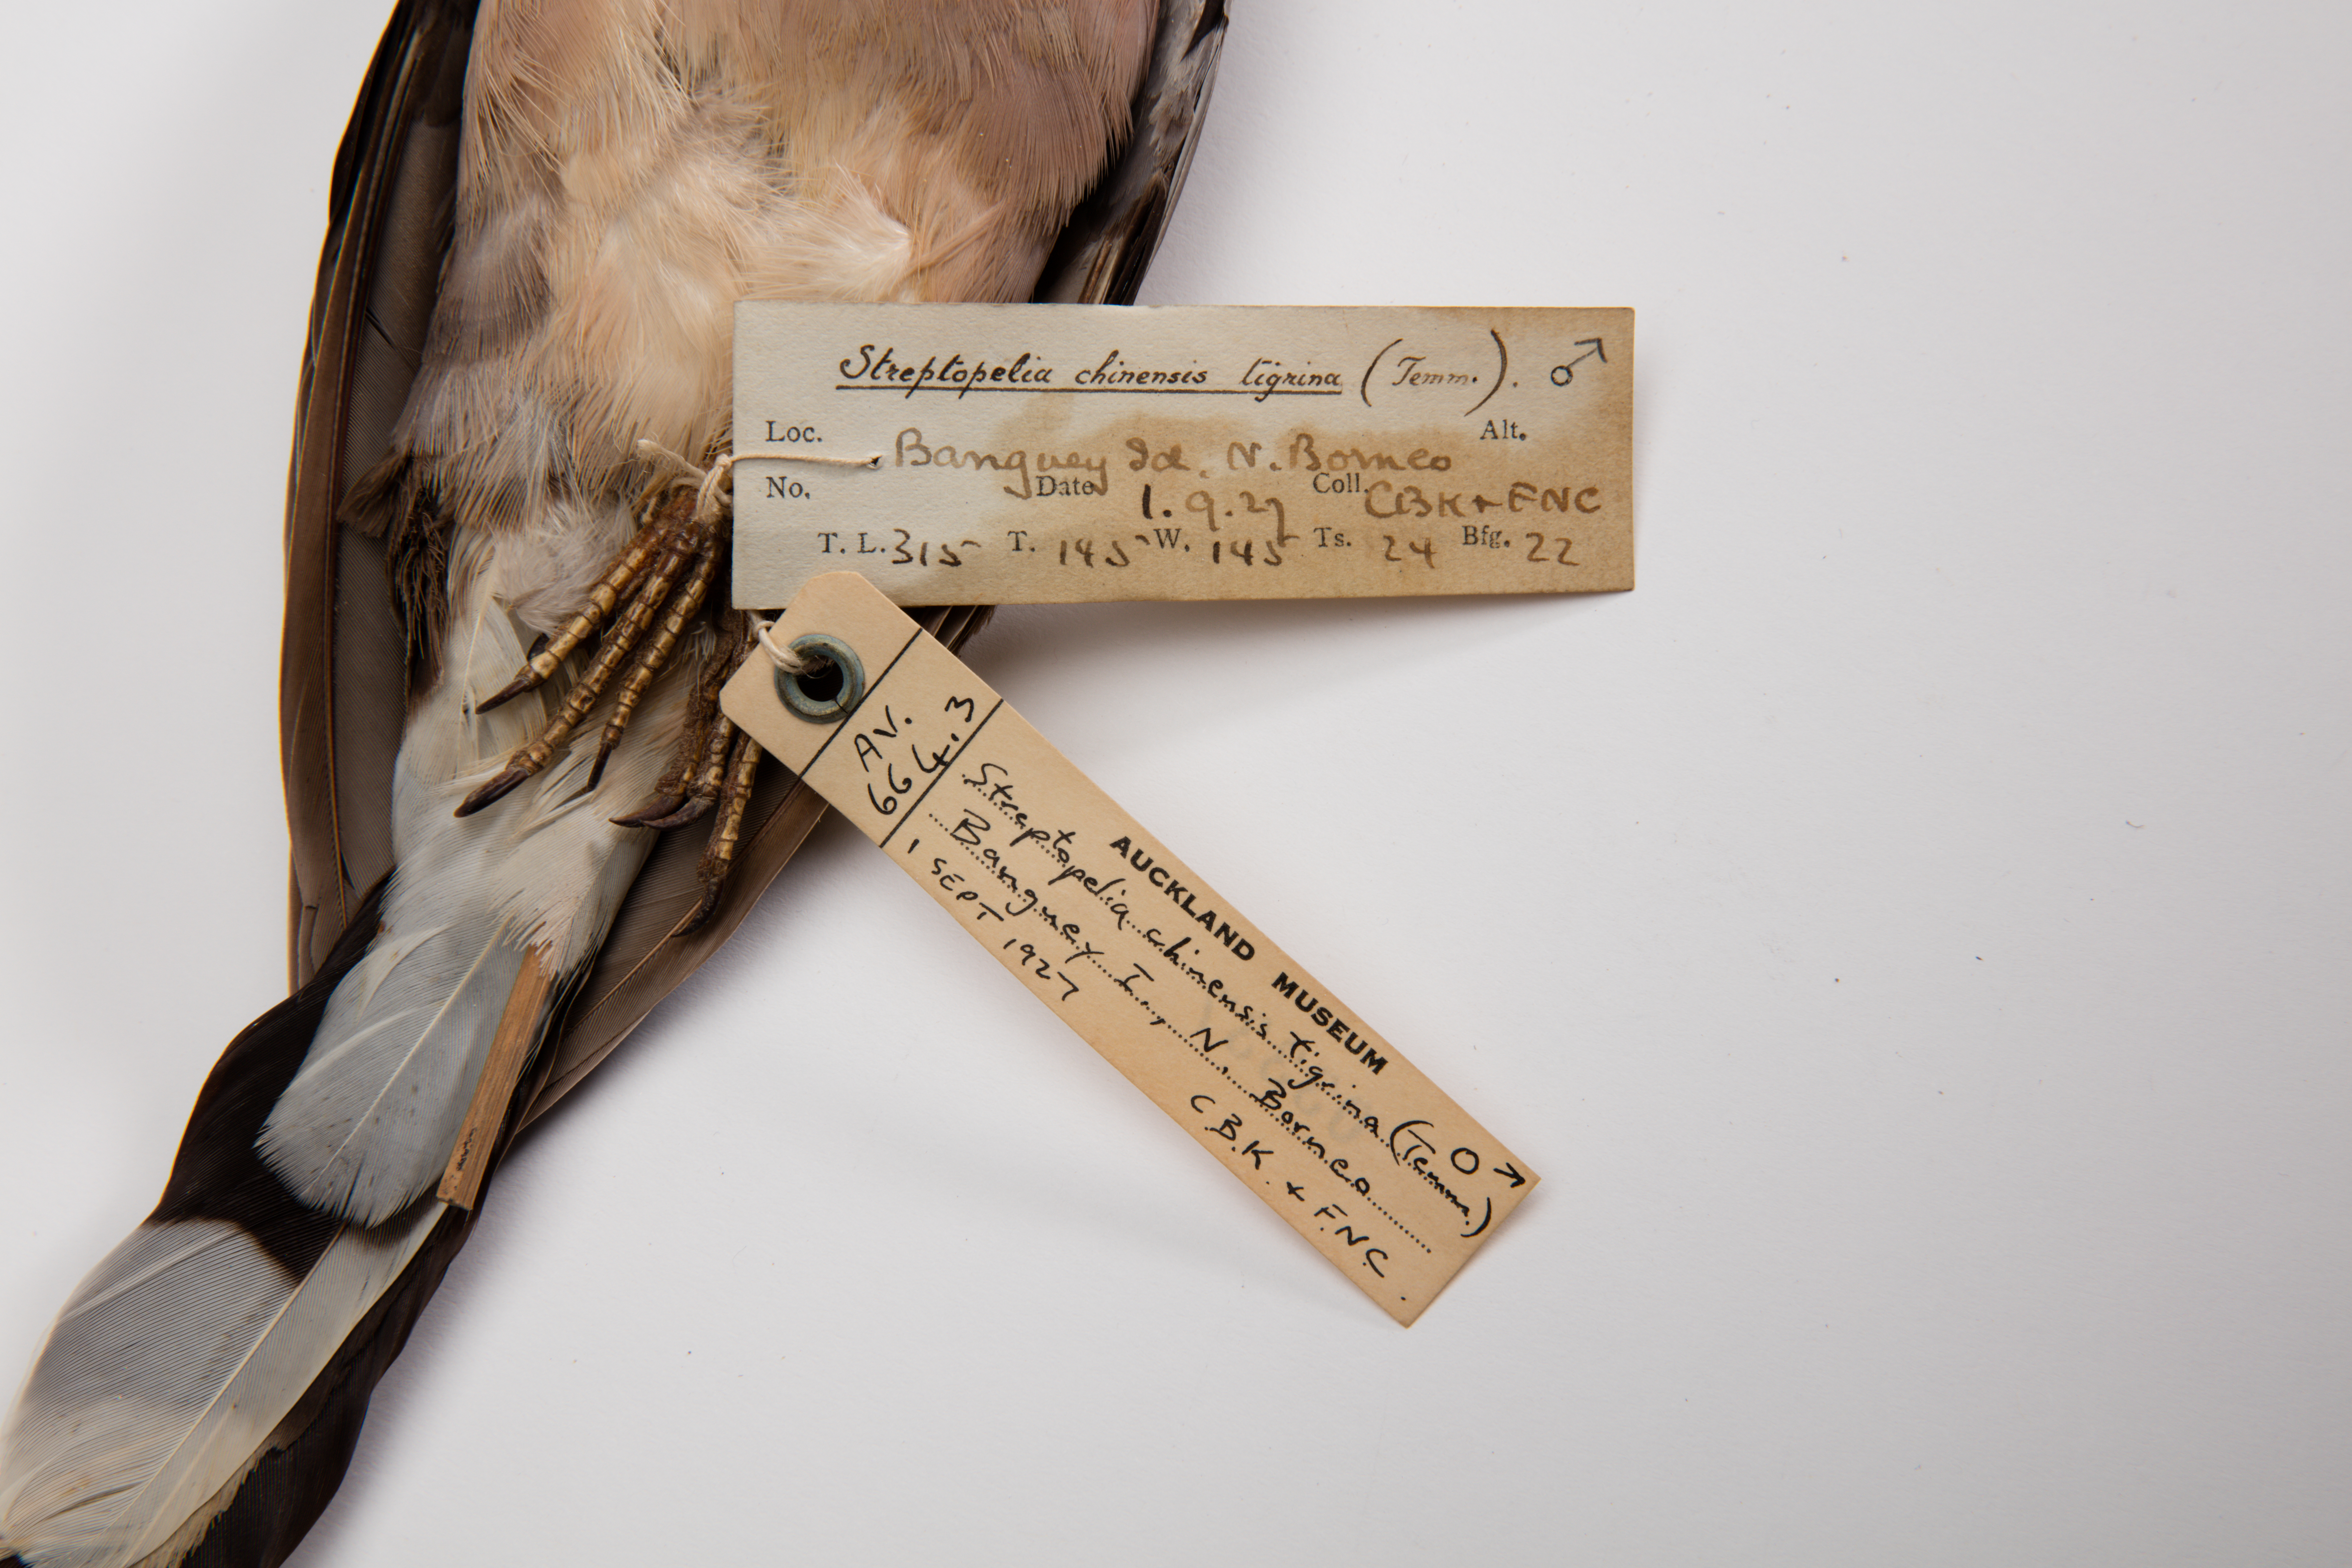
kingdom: Animalia
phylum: Chordata
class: Aves
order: Columbiformes
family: Columbidae
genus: Spilopelia
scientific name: Spilopelia chinensis
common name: Spotted dove
